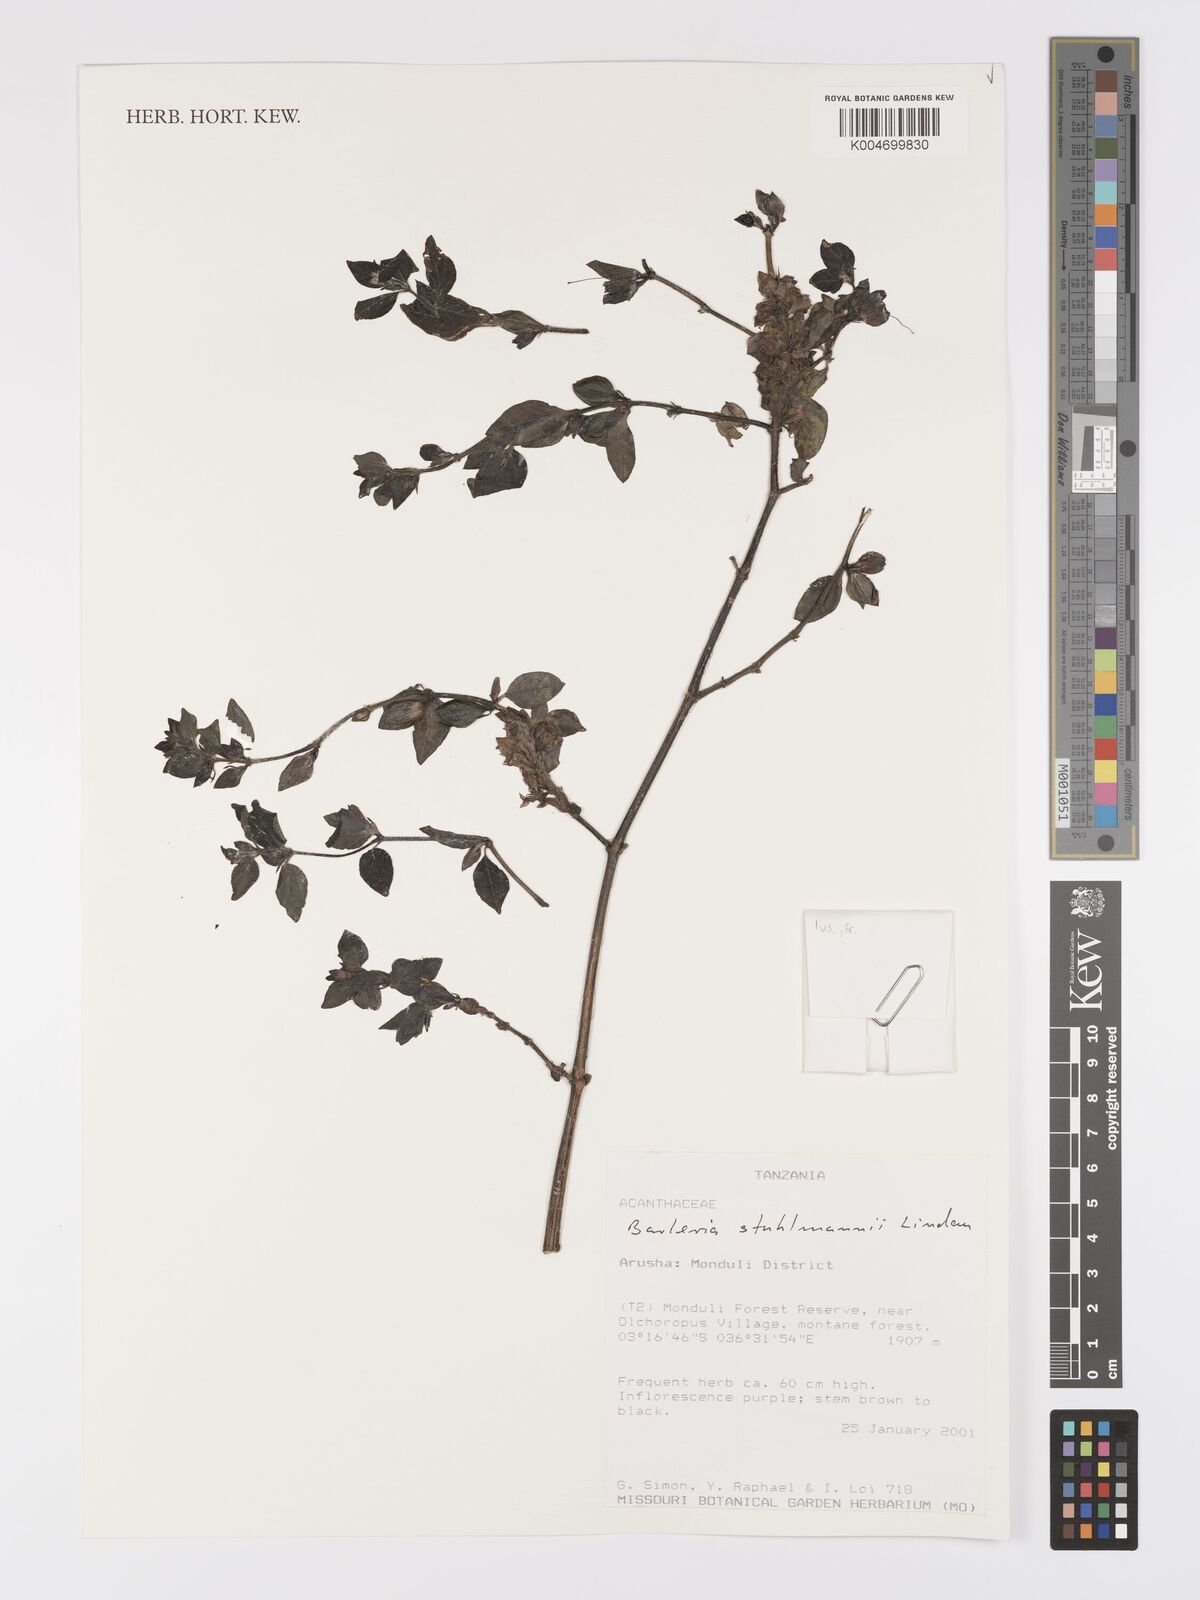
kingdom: Plantae
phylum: Tracheophyta
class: Magnoliopsida
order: Lamiales
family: Acanthaceae
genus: Barleria
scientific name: Barleria ventricosa
